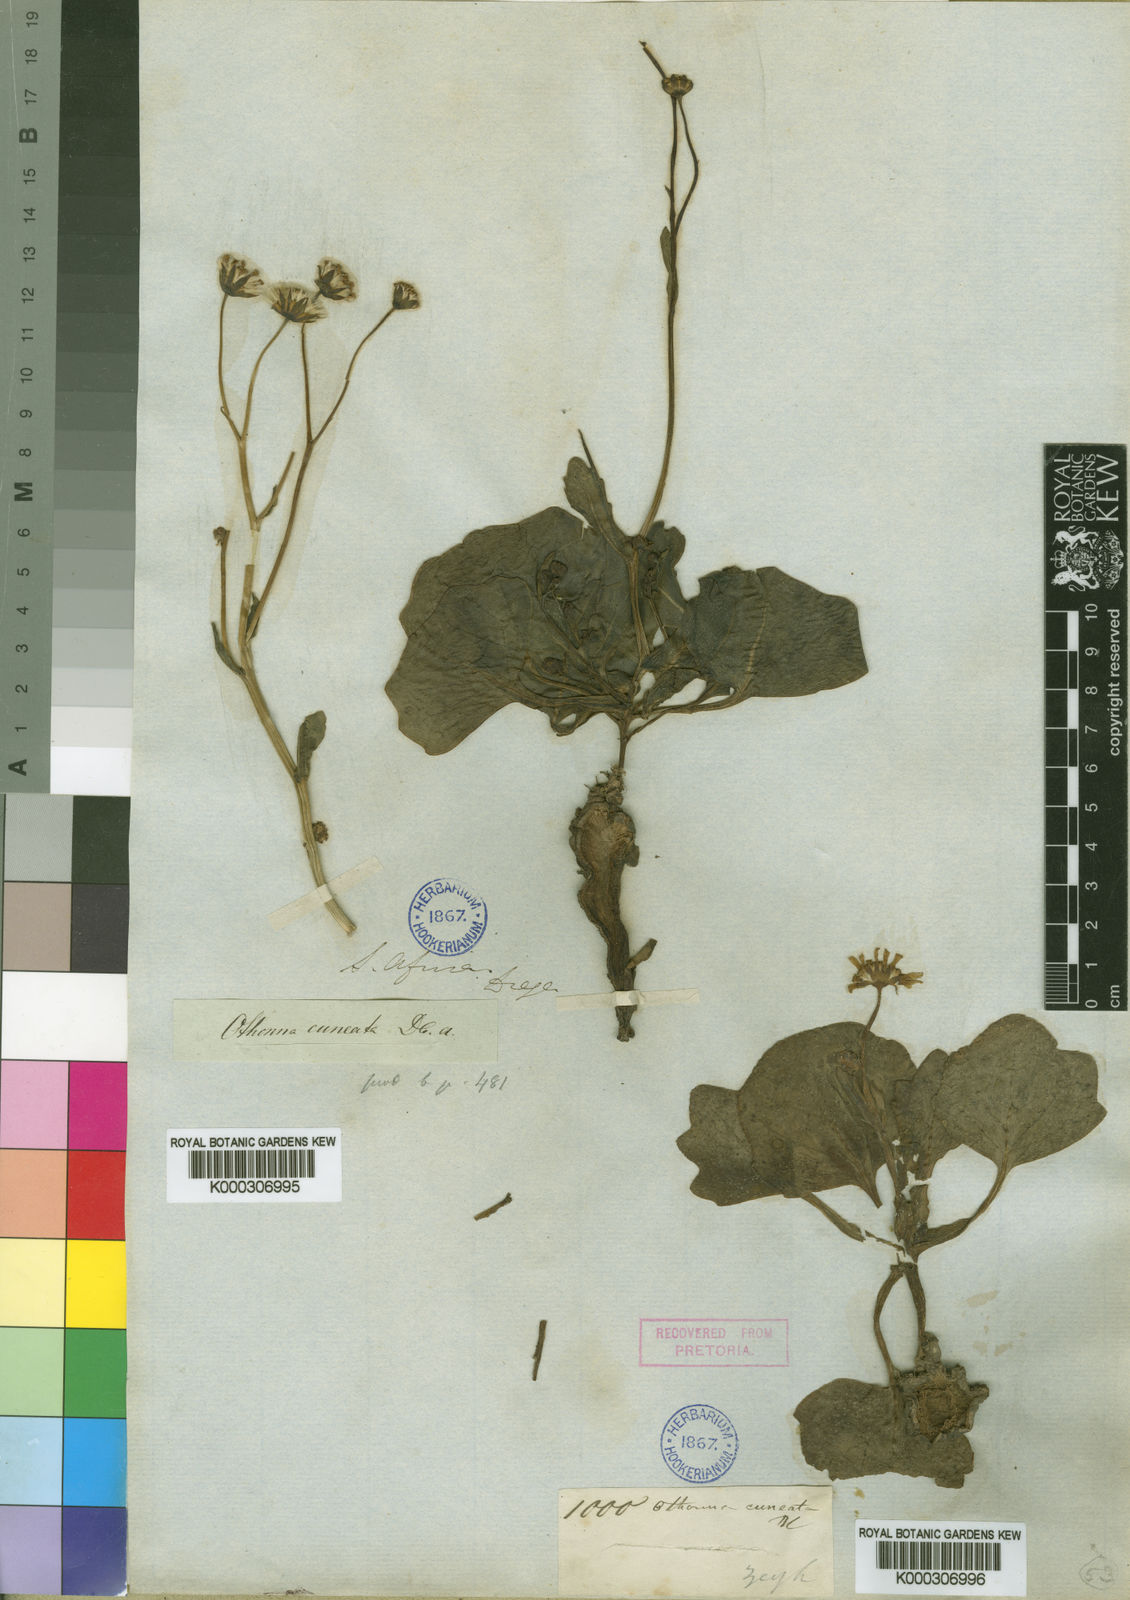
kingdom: Plantae
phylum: Tracheophyta
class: Magnoliopsida
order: Asterales
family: Asteraceae
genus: Othonna
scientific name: Othonna cuneata
